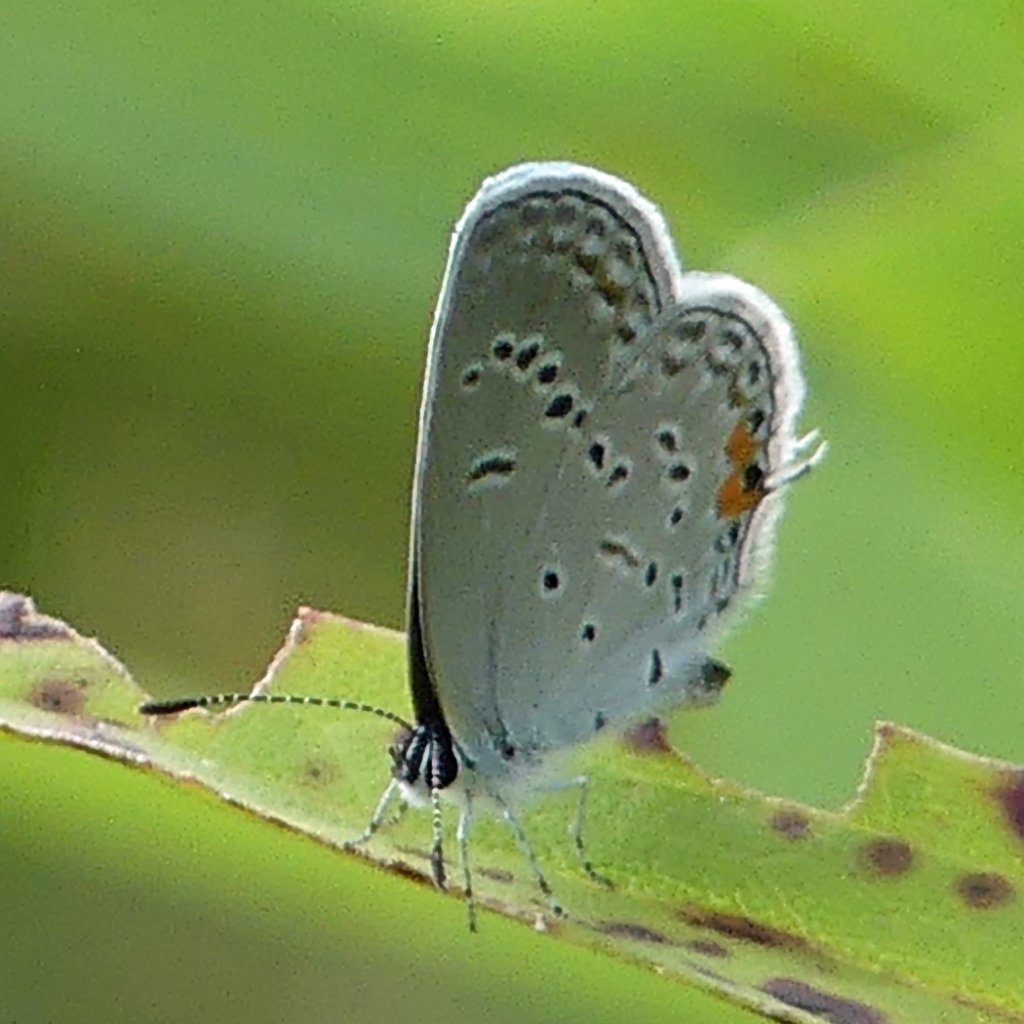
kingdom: Animalia
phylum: Arthropoda
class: Insecta
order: Lepidoptera
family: Lycaenidae
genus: Elkalyce
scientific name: Elkalyce comyntas
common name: Eastern Tailed-Blue
